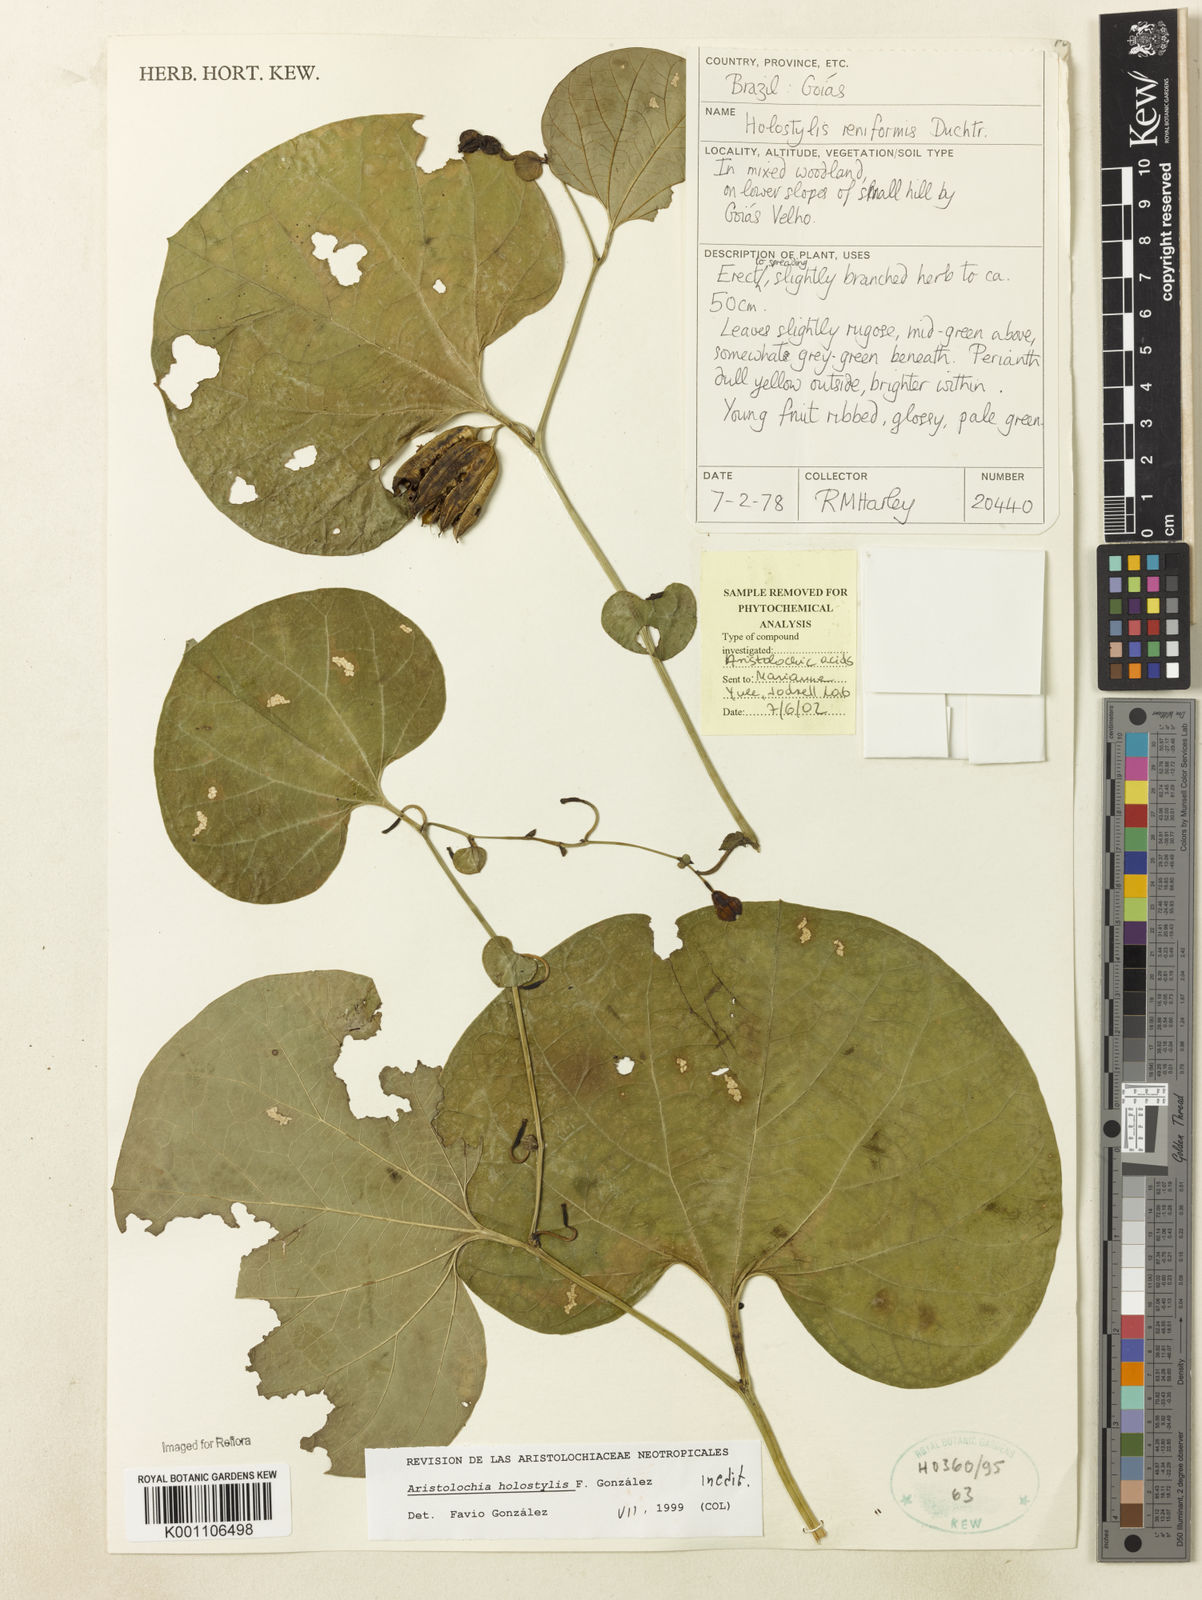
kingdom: Plantae
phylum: Tracheophyta
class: Magnoliopsida
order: Piperales
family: Aristolochiaceae
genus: Aristolochia
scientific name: Aristolochia
